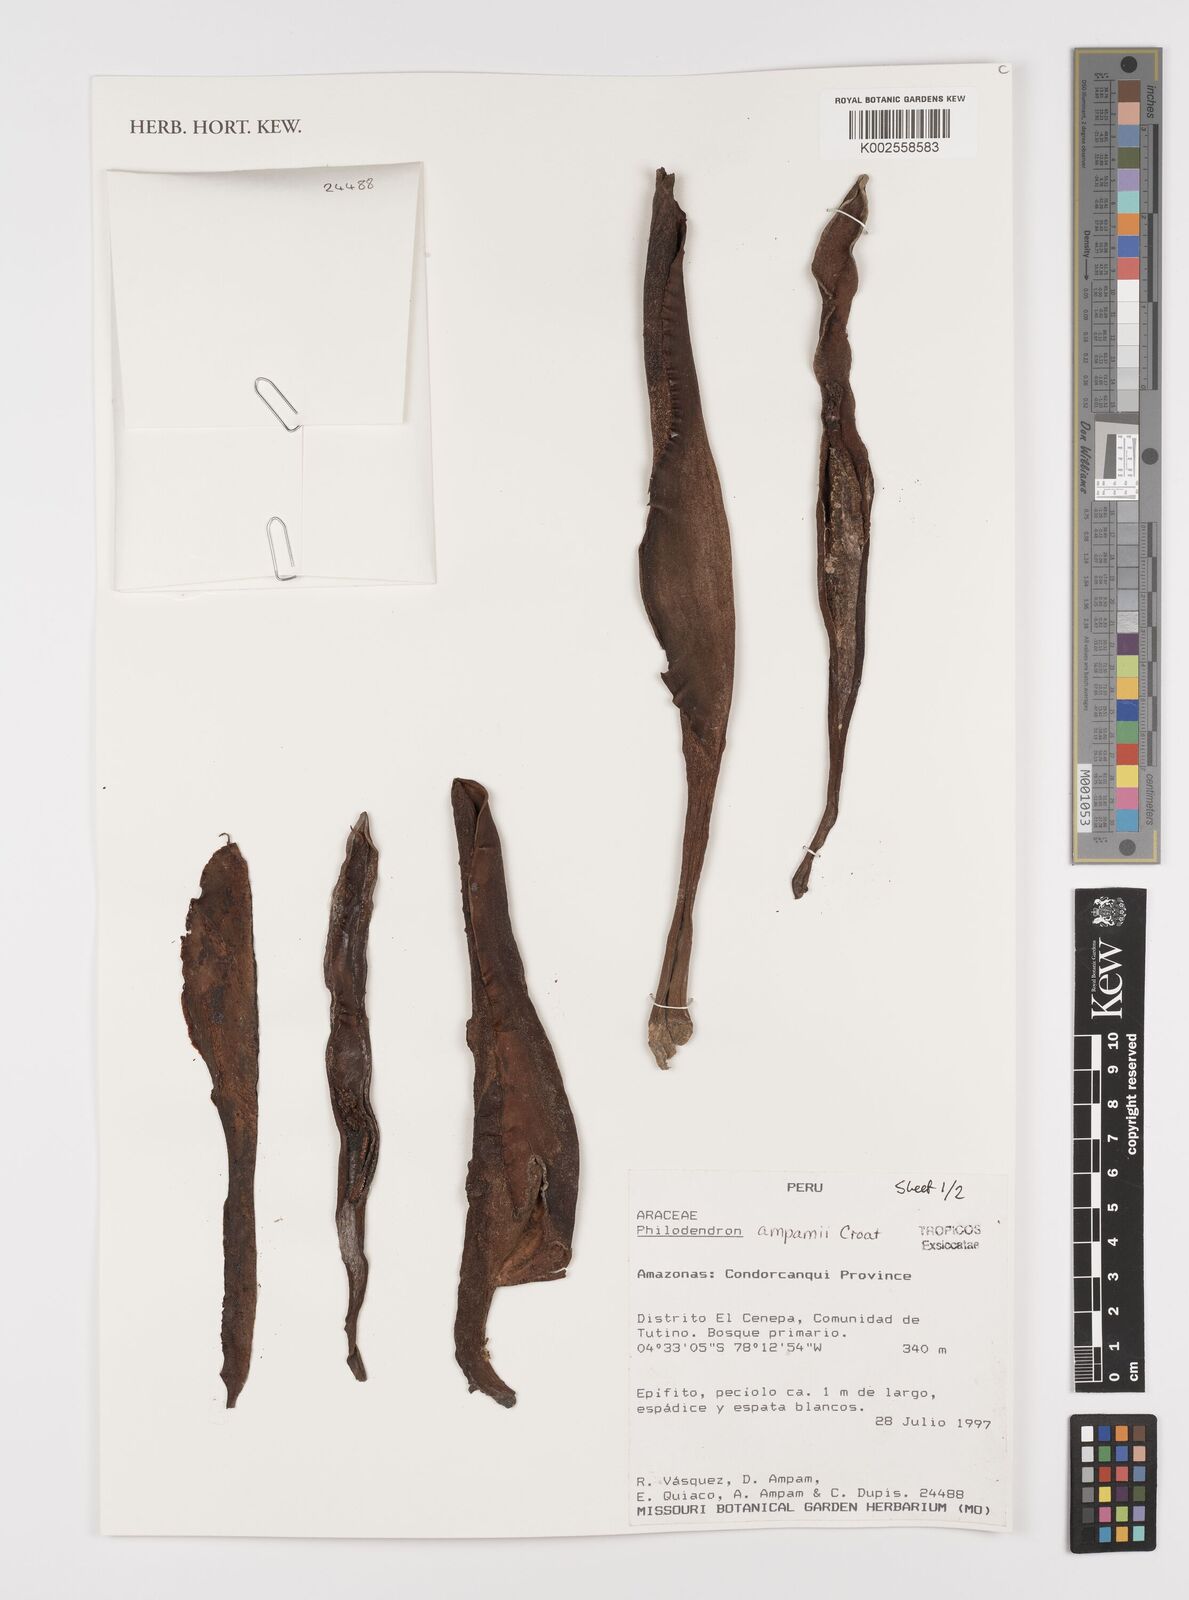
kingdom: Plantae
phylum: Tracheophyta
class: Liliopsida
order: Alismatales
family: Araceae
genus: Philodendron
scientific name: Philodendron ampamii
